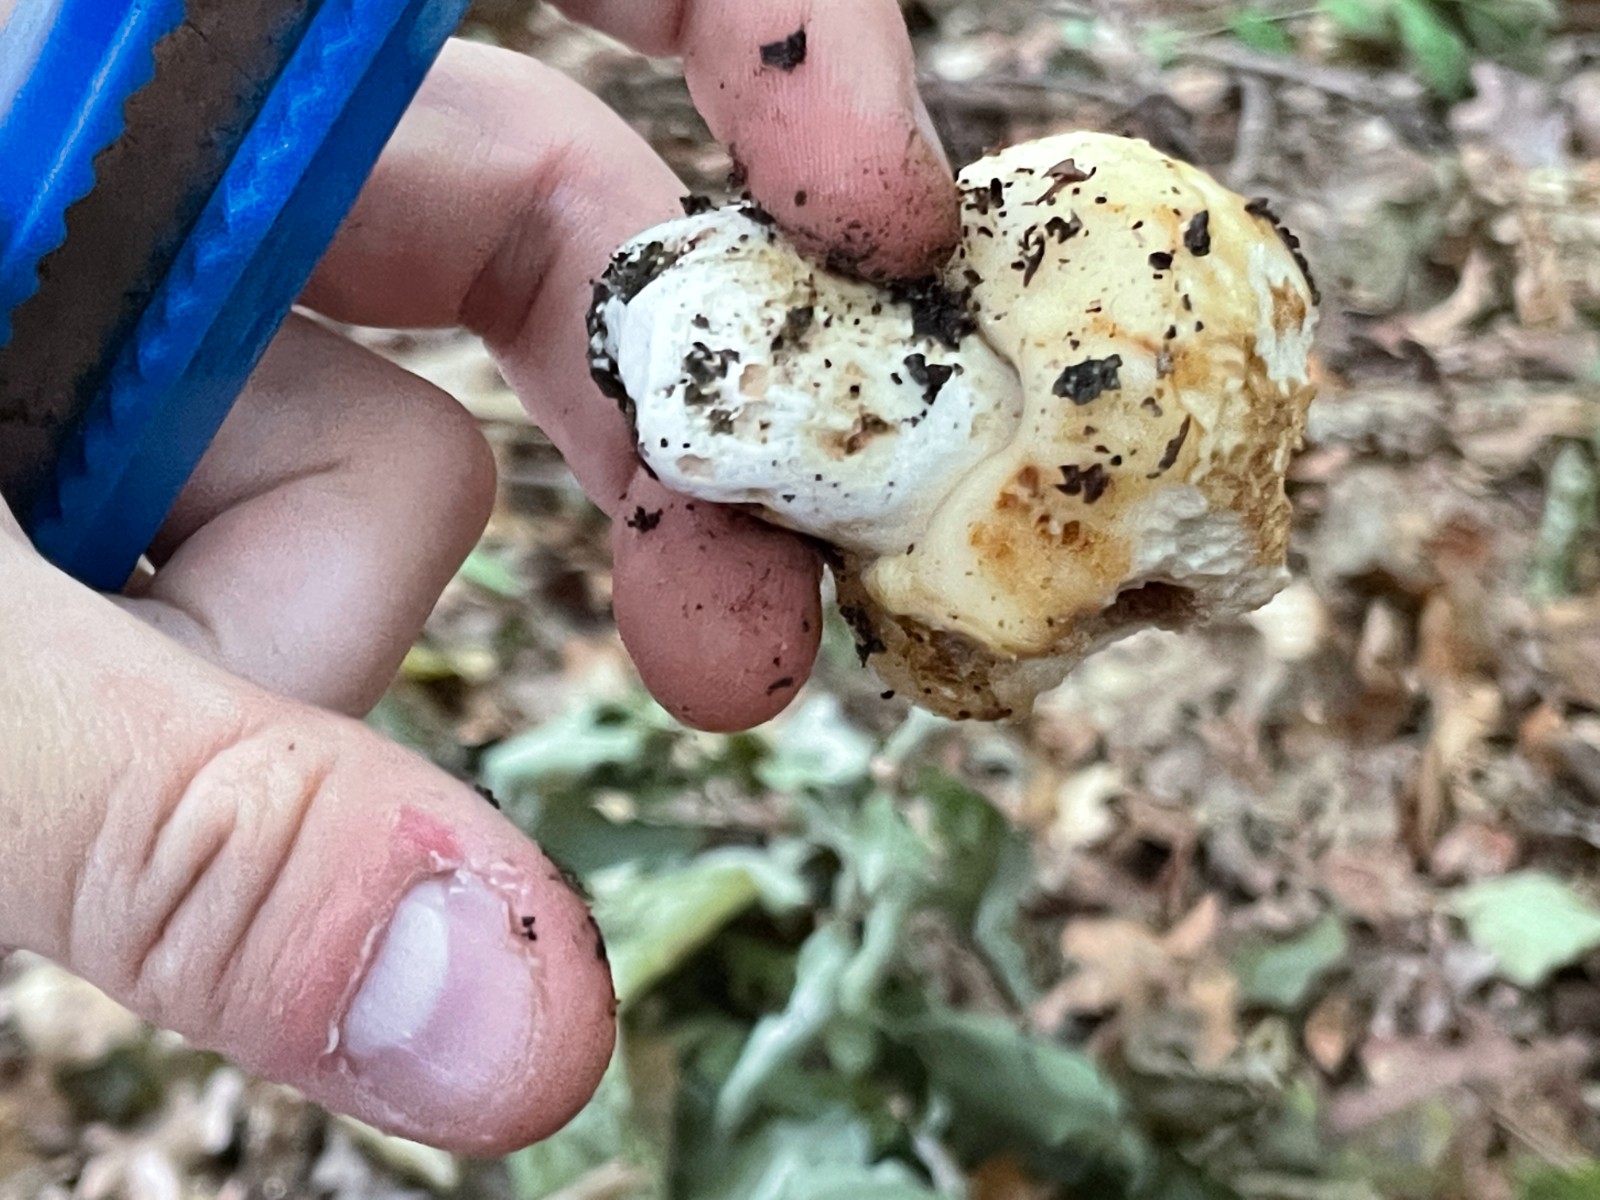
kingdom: Fungi
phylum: Basidiomycota
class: Agaricomycetes
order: Russulales
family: Russulaceae
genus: Russula
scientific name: Russula foetens
